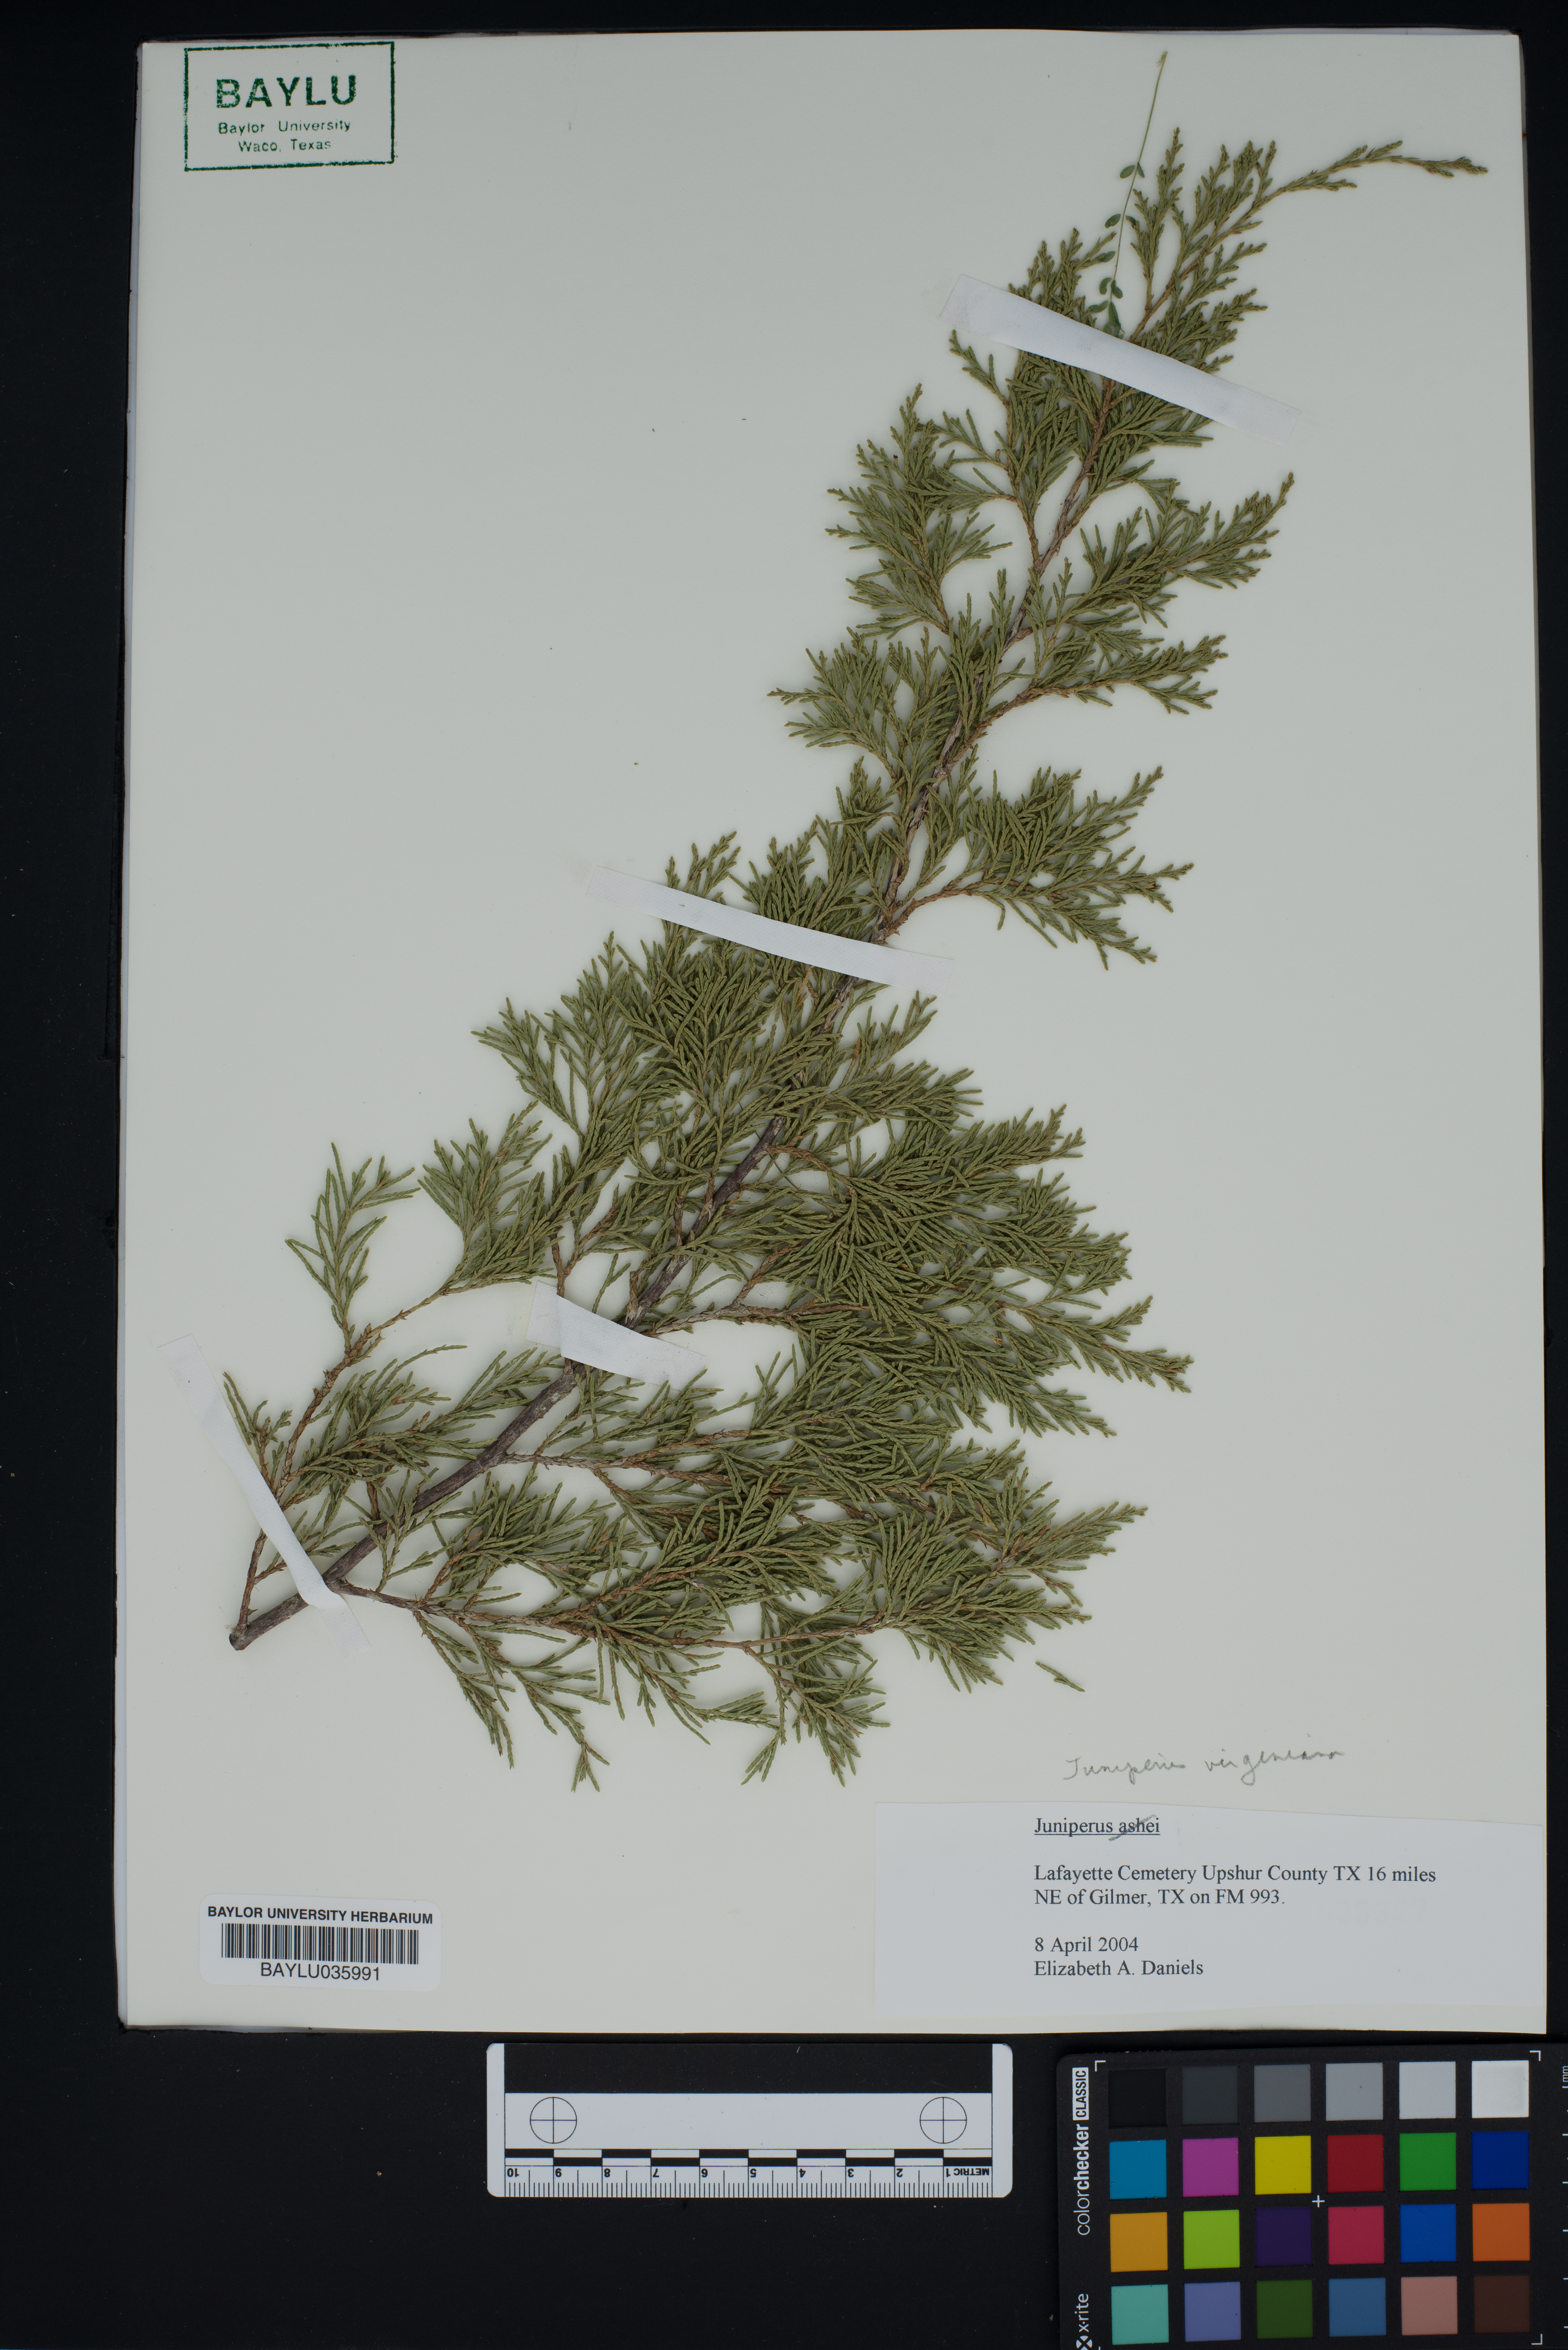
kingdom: Plantae
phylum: Tracheophyta
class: Pinopsida
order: Pinales
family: Cupressaceae
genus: Juniperus
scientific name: Juniperus virginiana
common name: Red juniper
